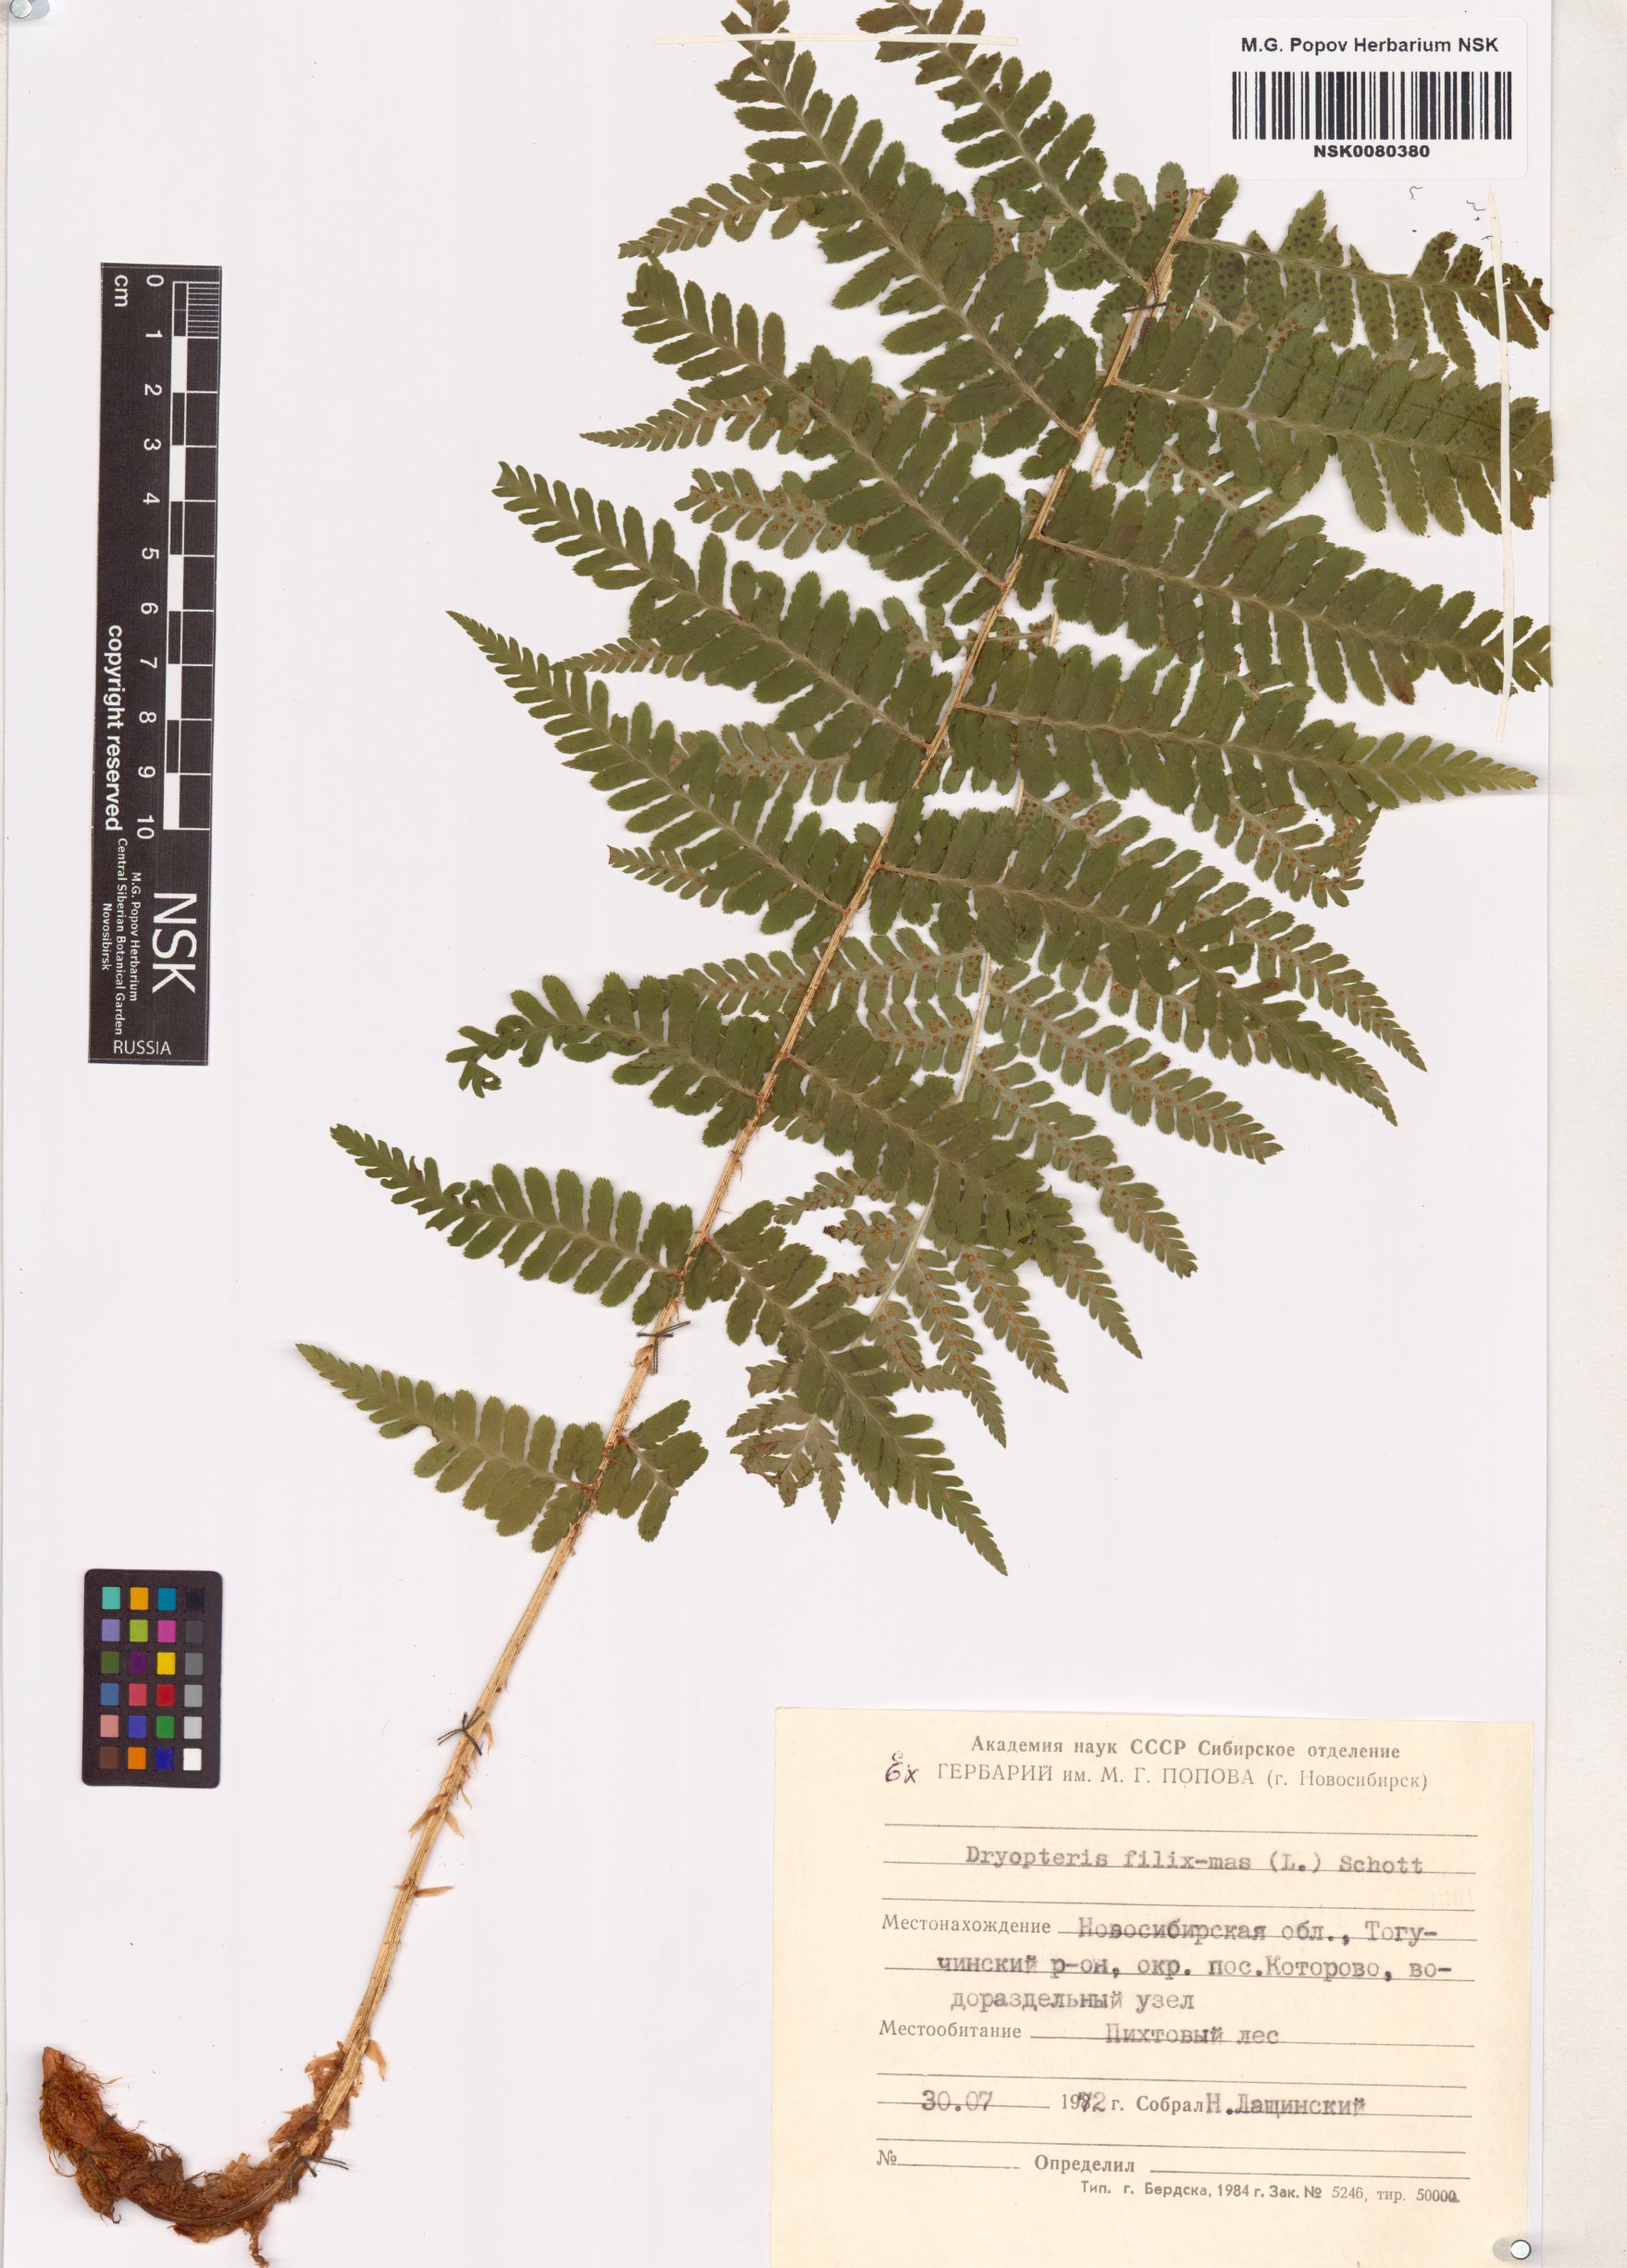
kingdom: Plantae
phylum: Tracheophyta
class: Polypodiopsida
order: Polypodiales
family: Dryopteridaceae
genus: Dryopteris
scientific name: Dryopteris filix-mas
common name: Male fern
